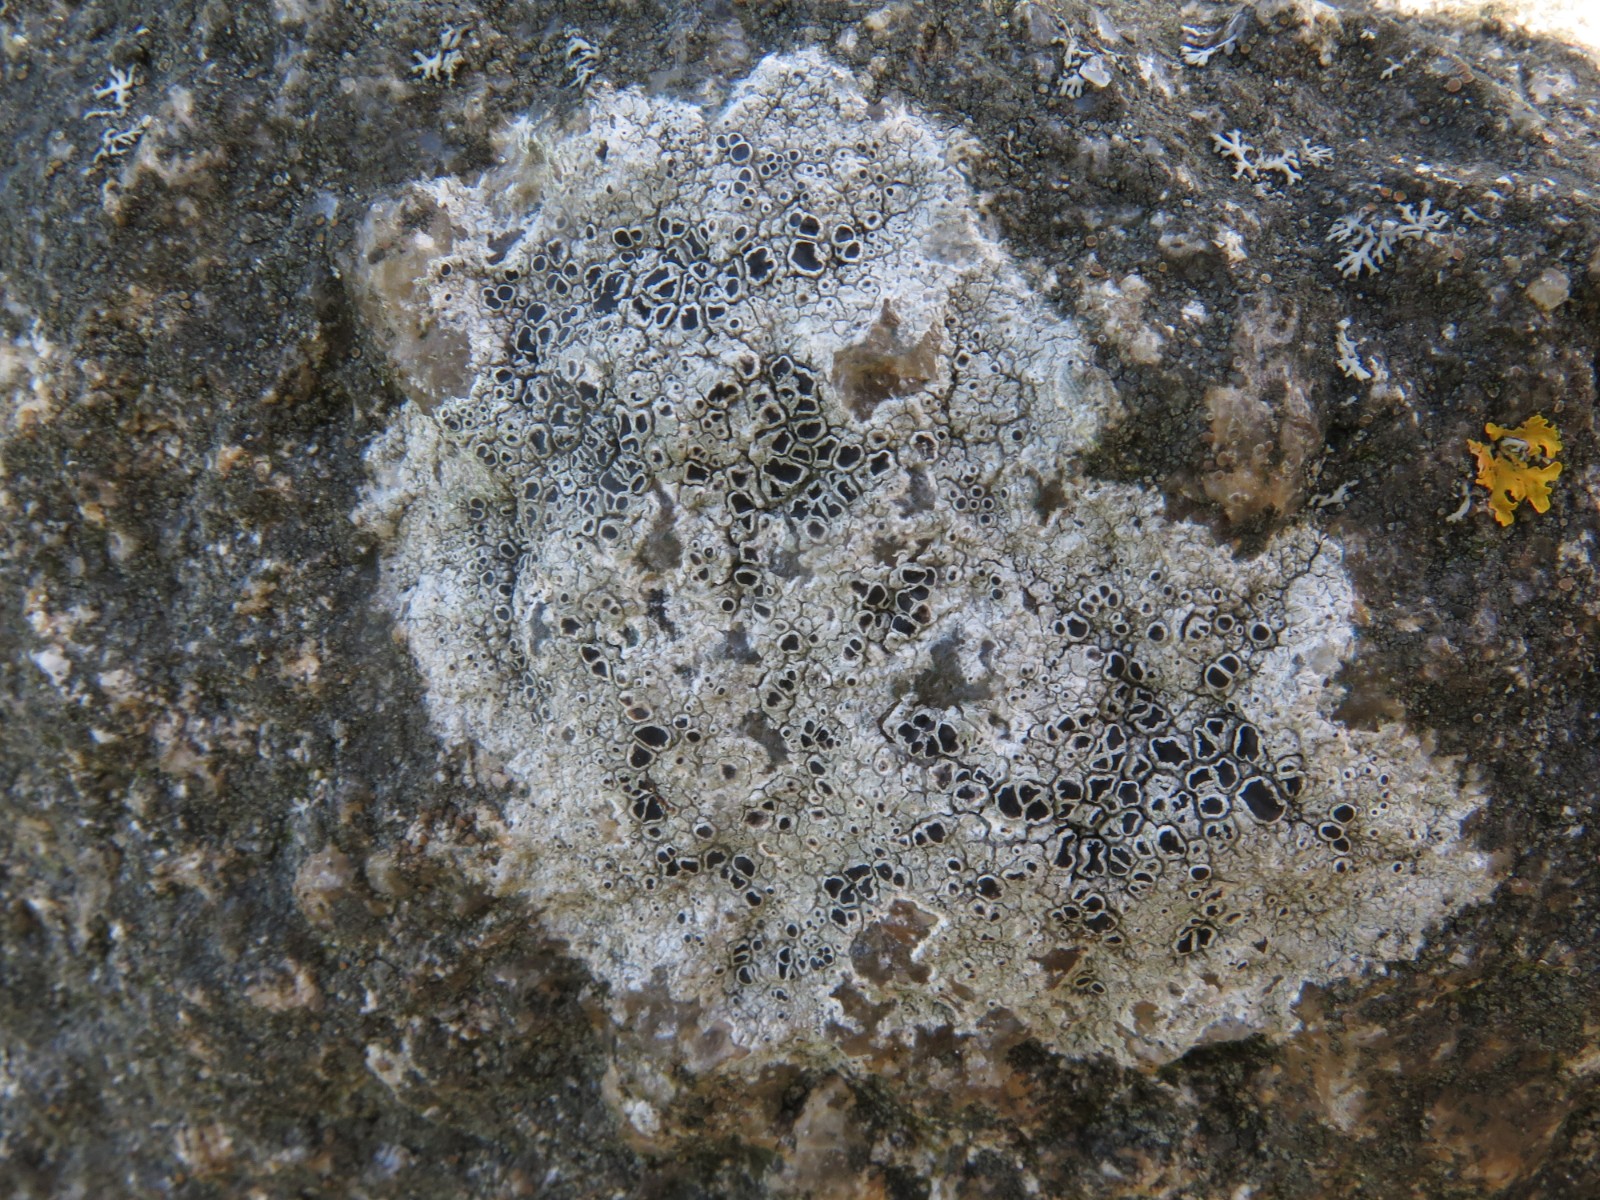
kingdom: Fungi
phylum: Ascomycota
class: Lecanoromycetes
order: Lecanorales
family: Tephromelataceae
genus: Tephromela
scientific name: Tephromela atra
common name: sortfrugtet kantskivelav
